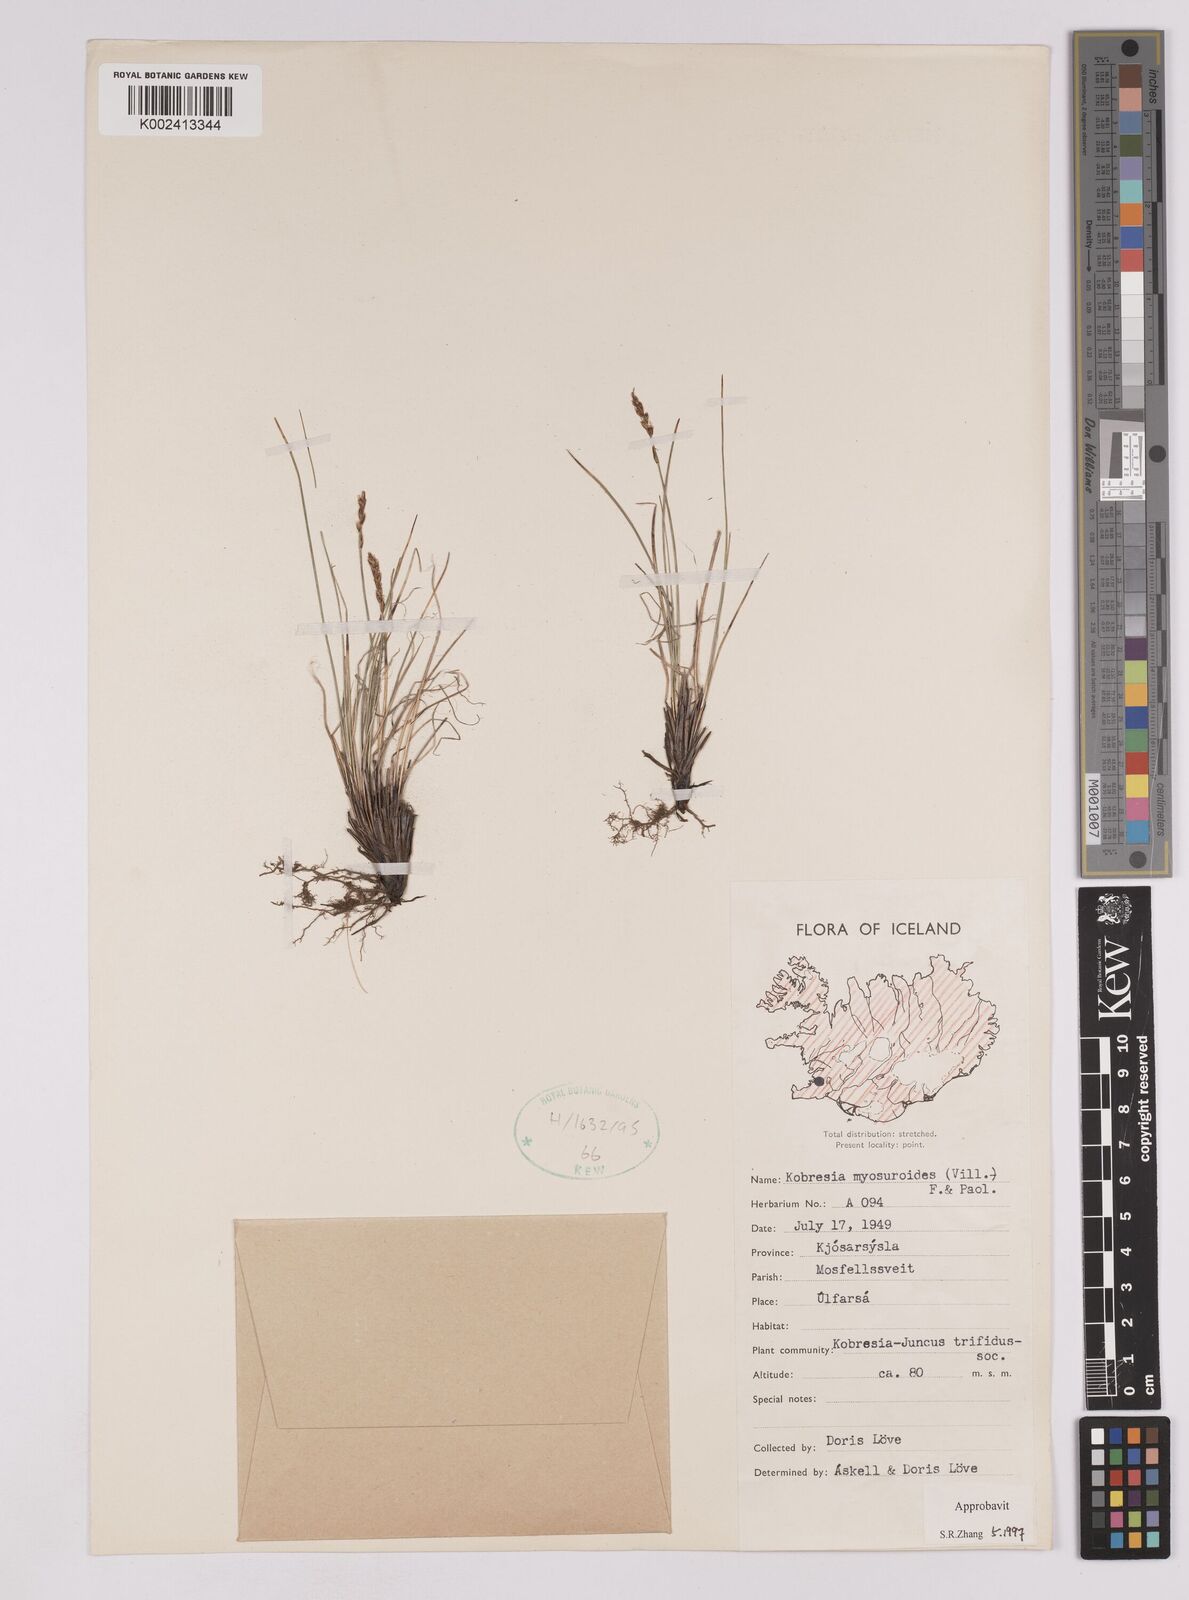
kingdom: Plantae
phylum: Tracheophyta
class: Liliopsida
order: Poales
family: Cyperaceae
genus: Carex
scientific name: Carex myosuroides
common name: Bellard's bog sedge
